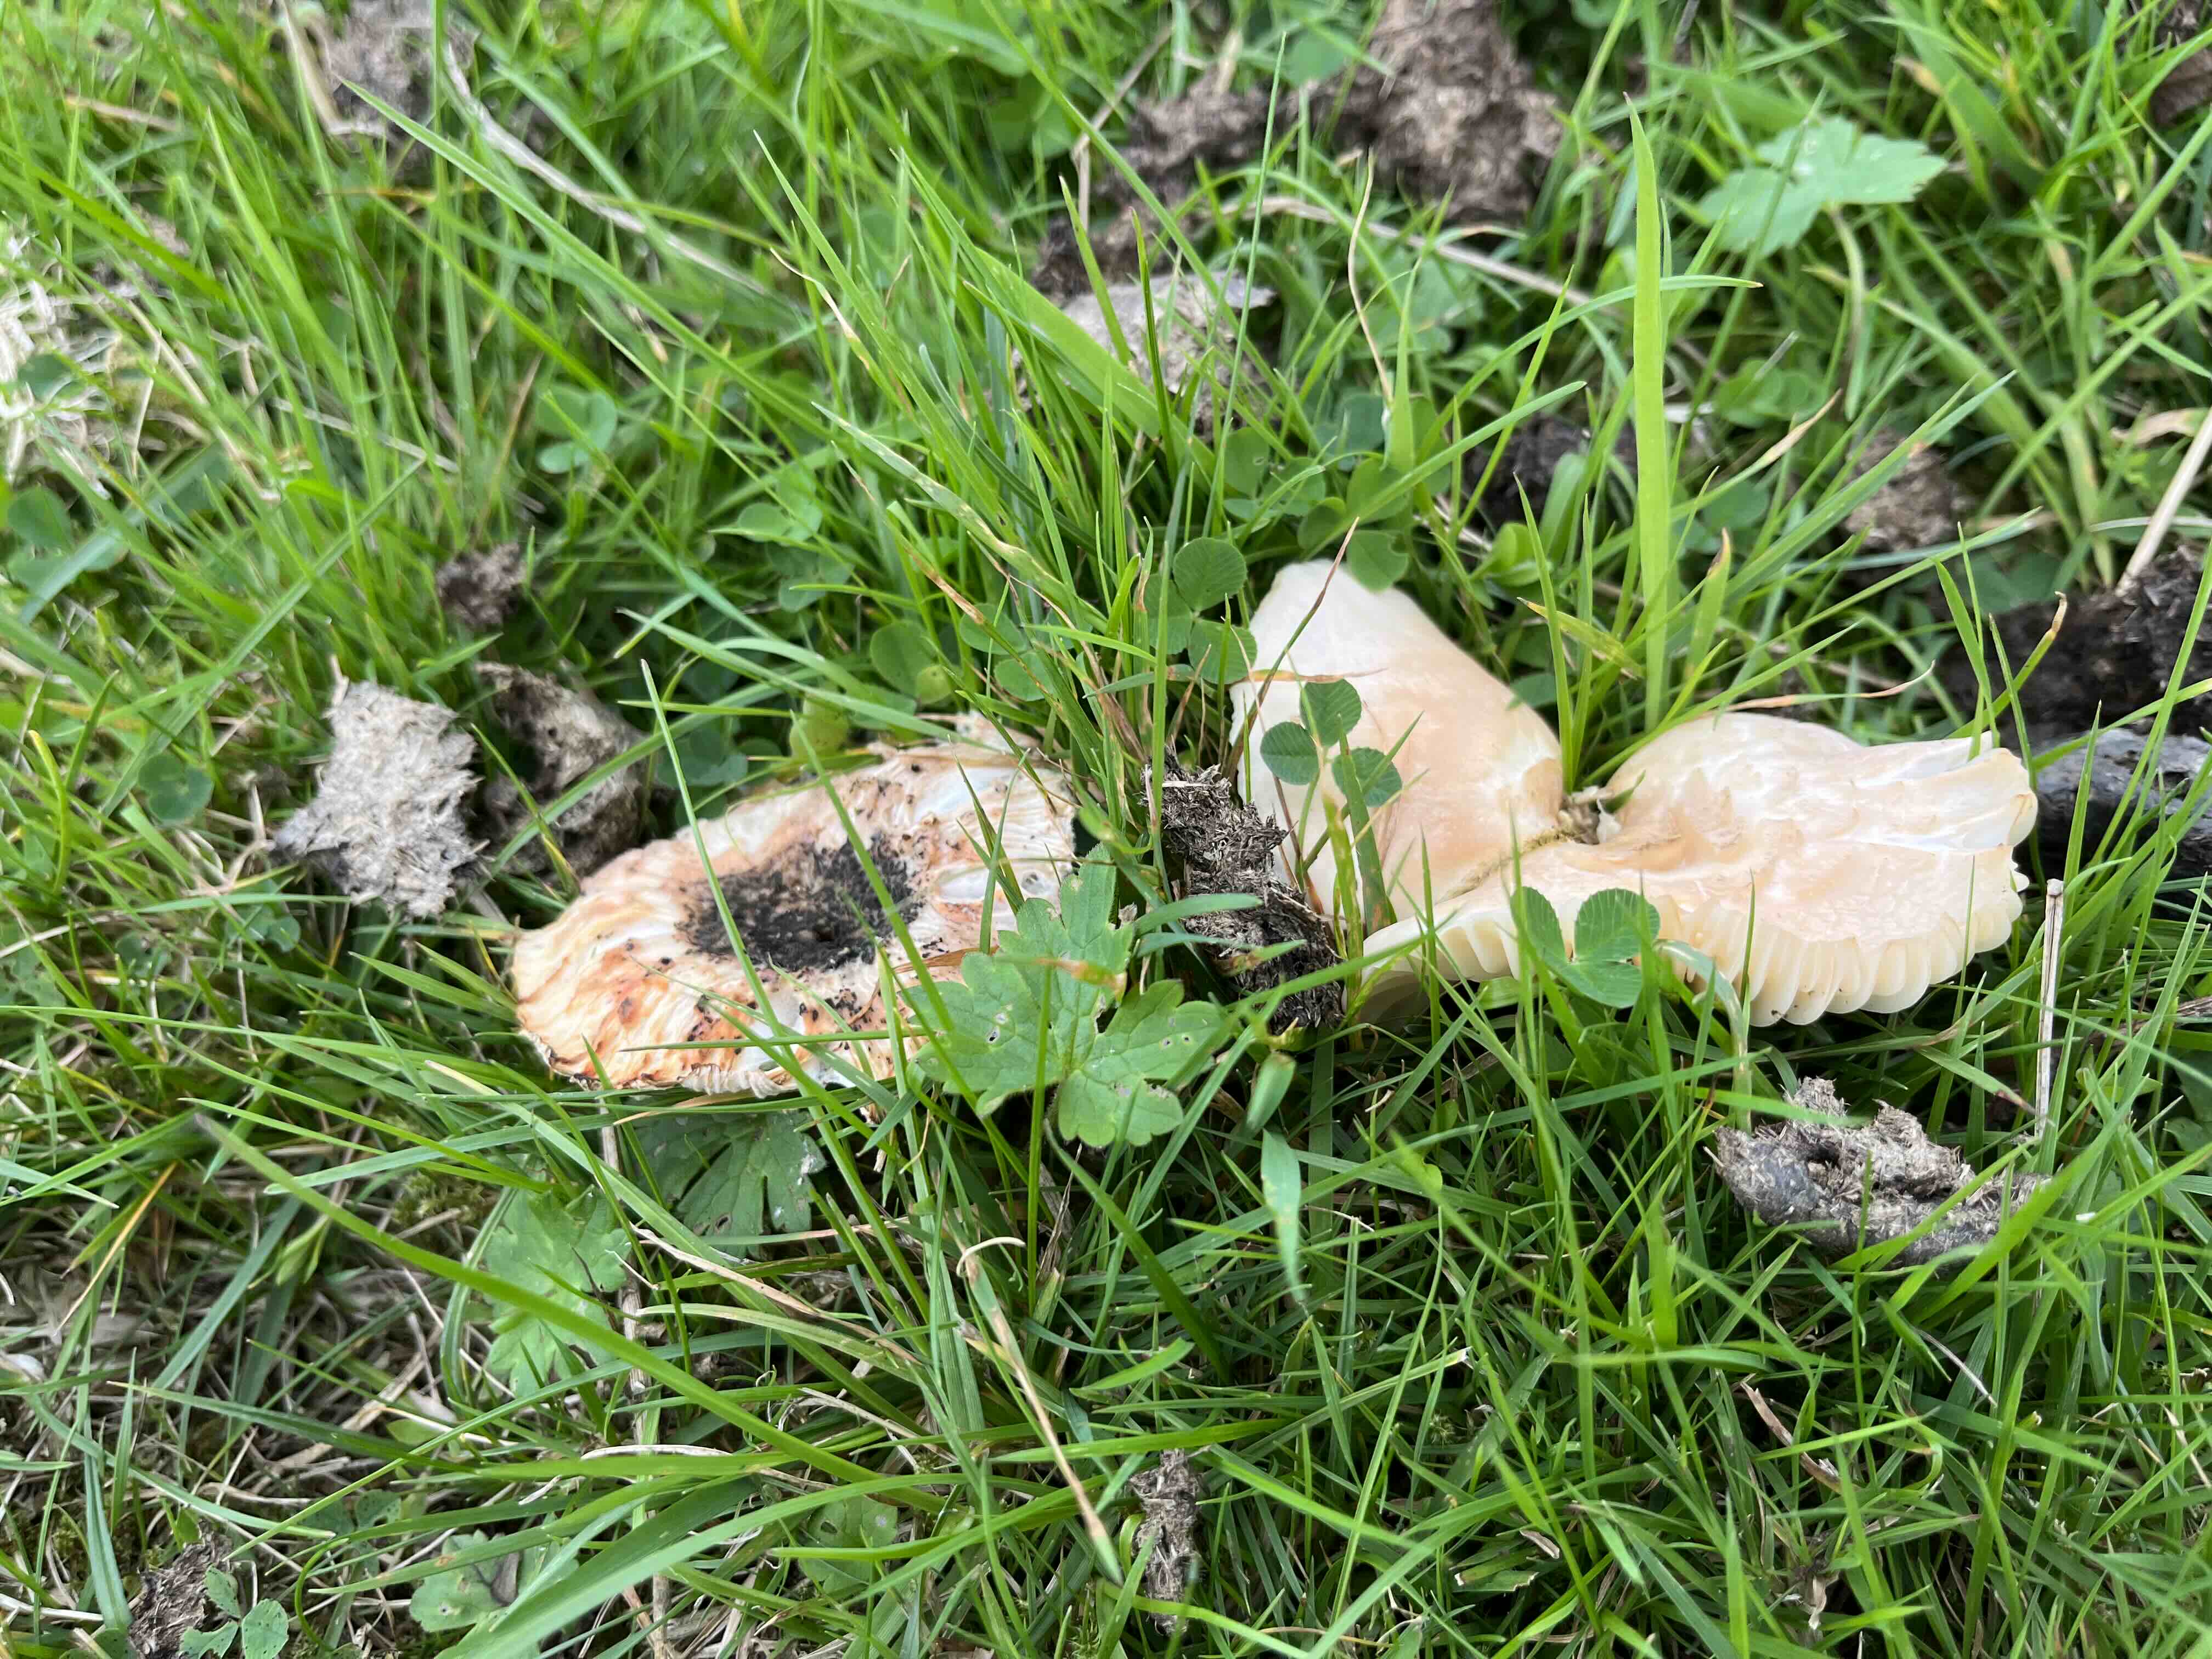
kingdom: Fungi
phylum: Basidiomycota
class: Agaricomycetes
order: Agaricales
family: Hygrophoraceae
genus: Cuphophyllus
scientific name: Cuphophyllus pratensis
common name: eng-vokshat
